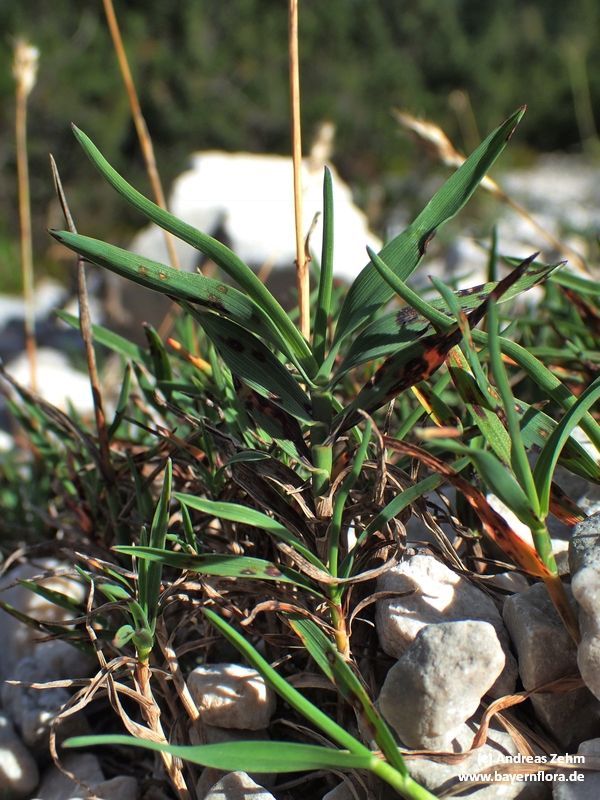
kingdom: Plantae
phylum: Tracheophyta
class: Liliopsida
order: Poales
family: Poaceae
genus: Acrospelion
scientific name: Acrospelion distichophyllum
